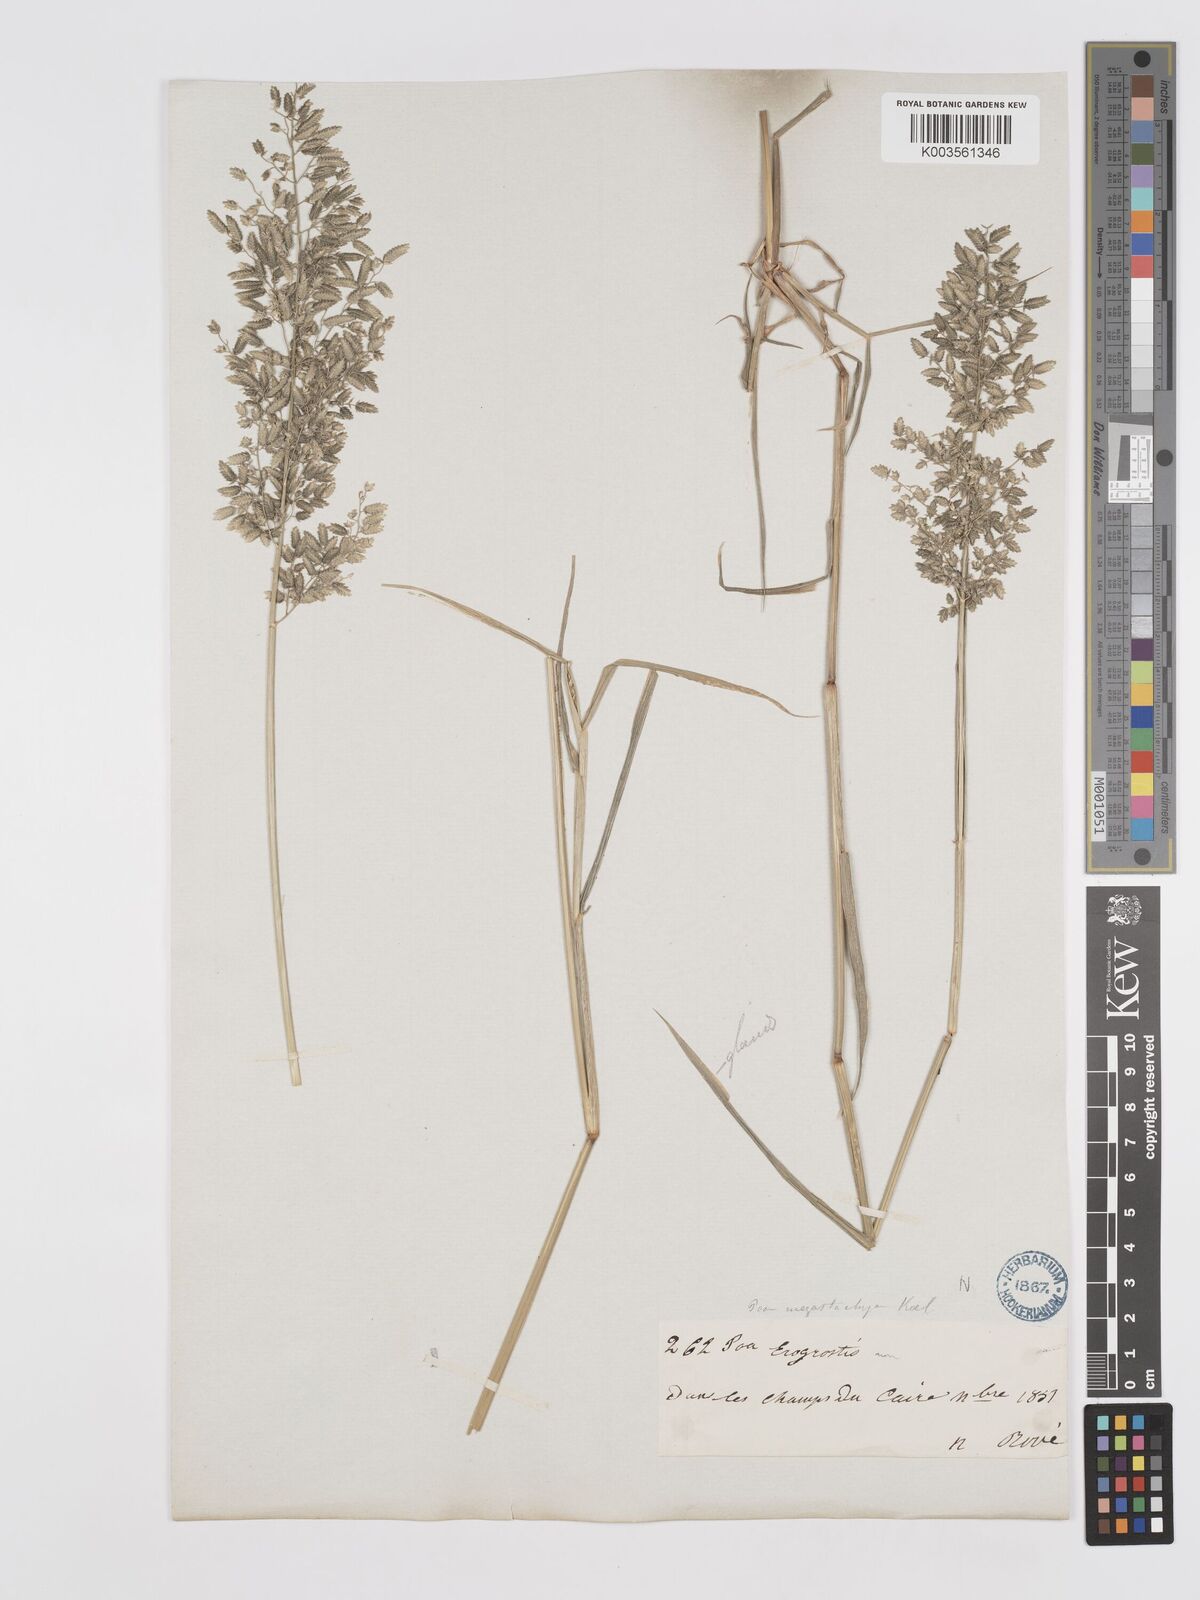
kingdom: Plantae
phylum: Tracheophyta
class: Liliopsida
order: Poales
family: Poaceae
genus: Eragrostis
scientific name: Eragrostis cilianensis
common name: Stinkgrass
